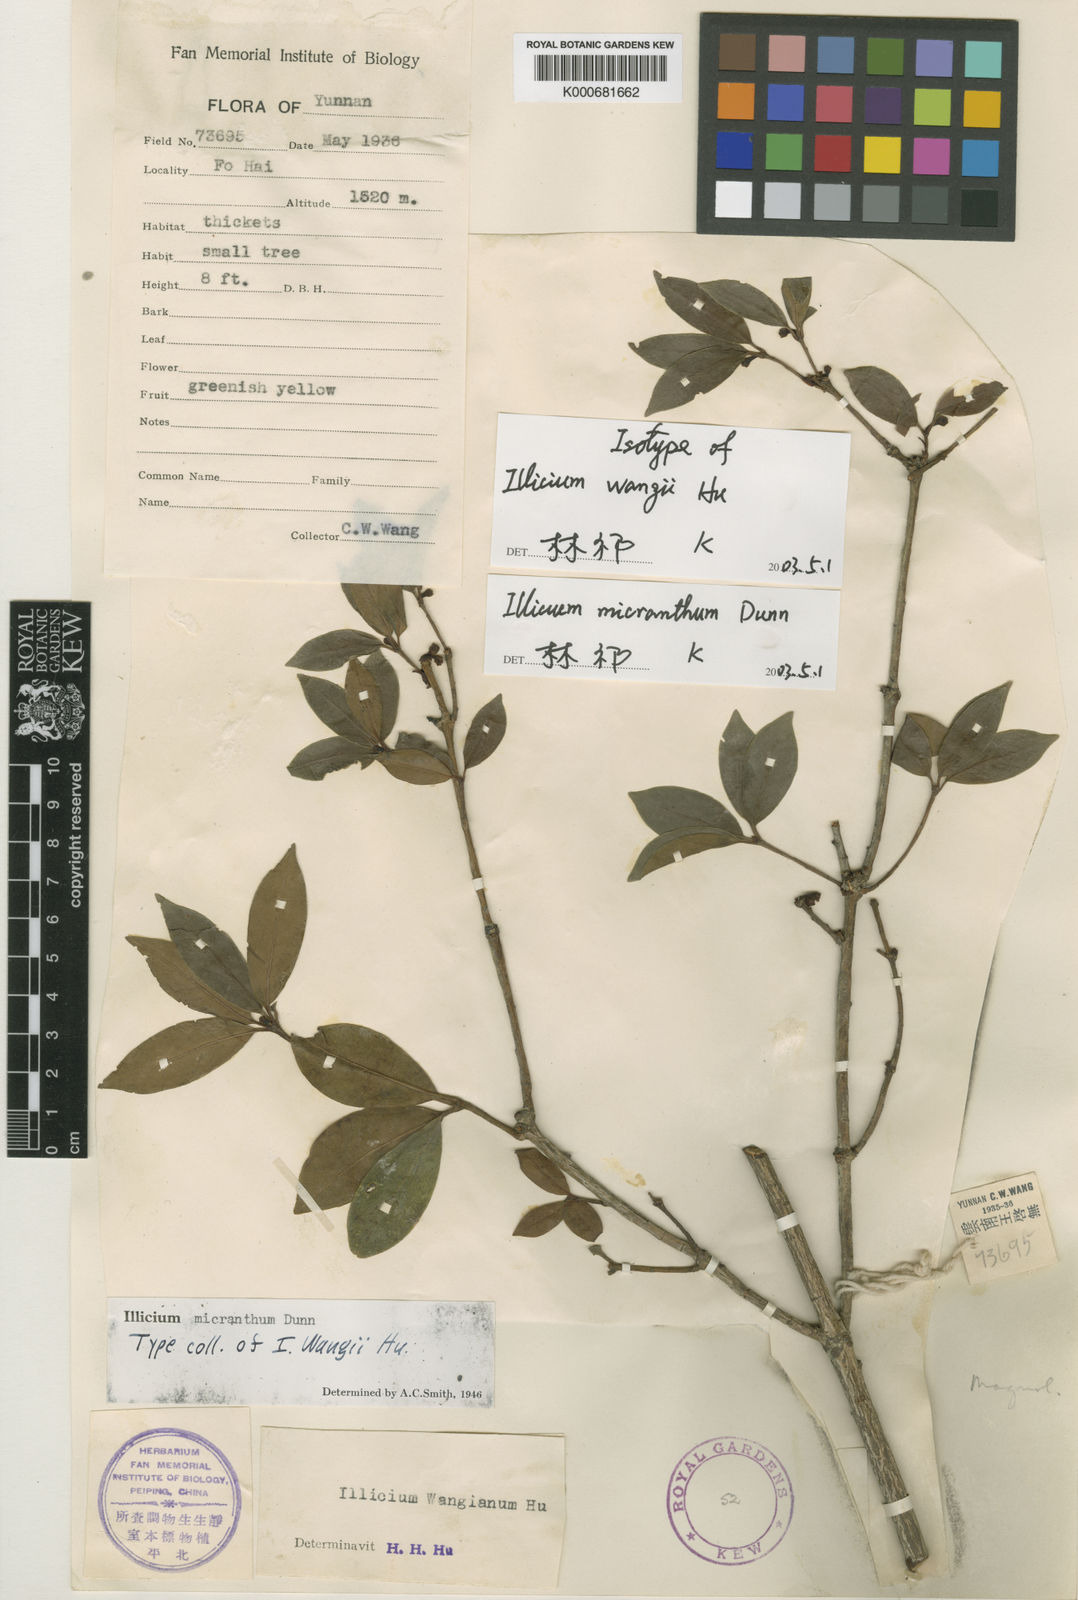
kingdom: Plantae
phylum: Tracheophyta
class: Magnoliopsida
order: Austrobaileyales
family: Schisandraceae
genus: Illicium
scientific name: Illicium micranthum
